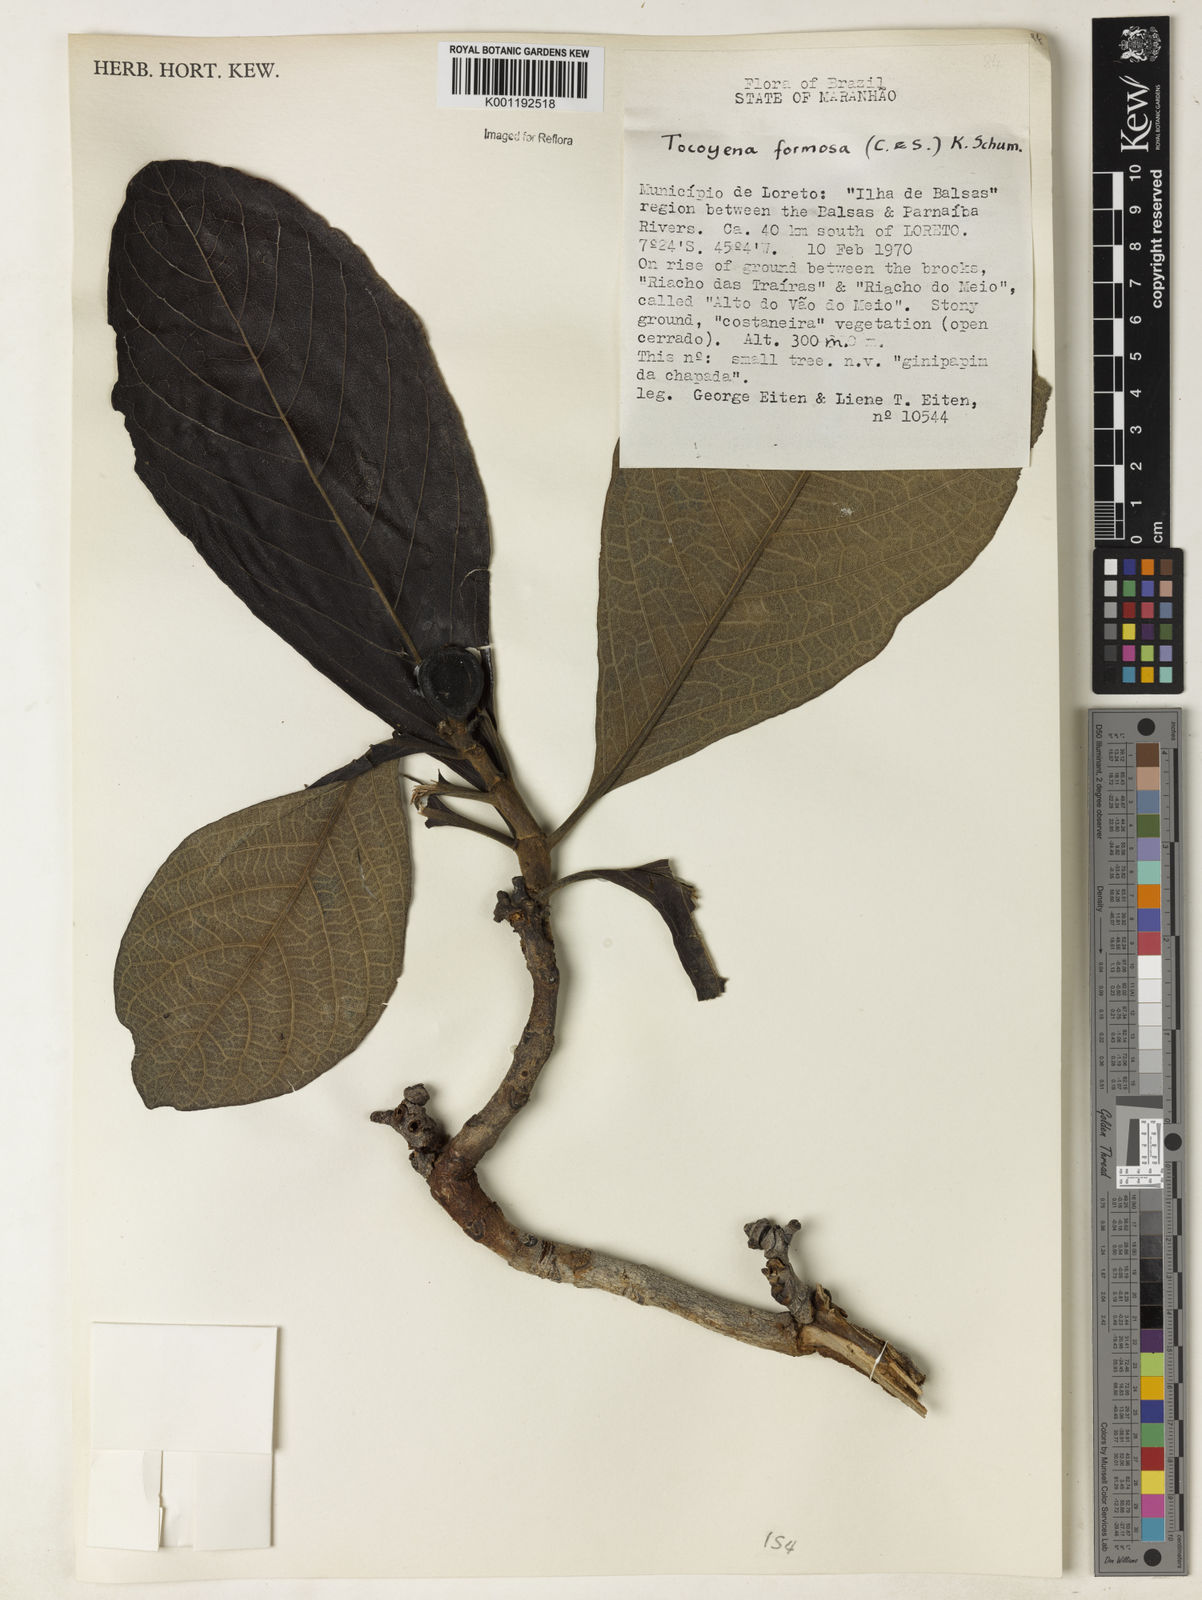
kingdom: Plantae
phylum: Tracheophyta
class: Magnoliopsida
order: Gentianales
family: Rubiaceae
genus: Tocoyena
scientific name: Tocoyena formosa
